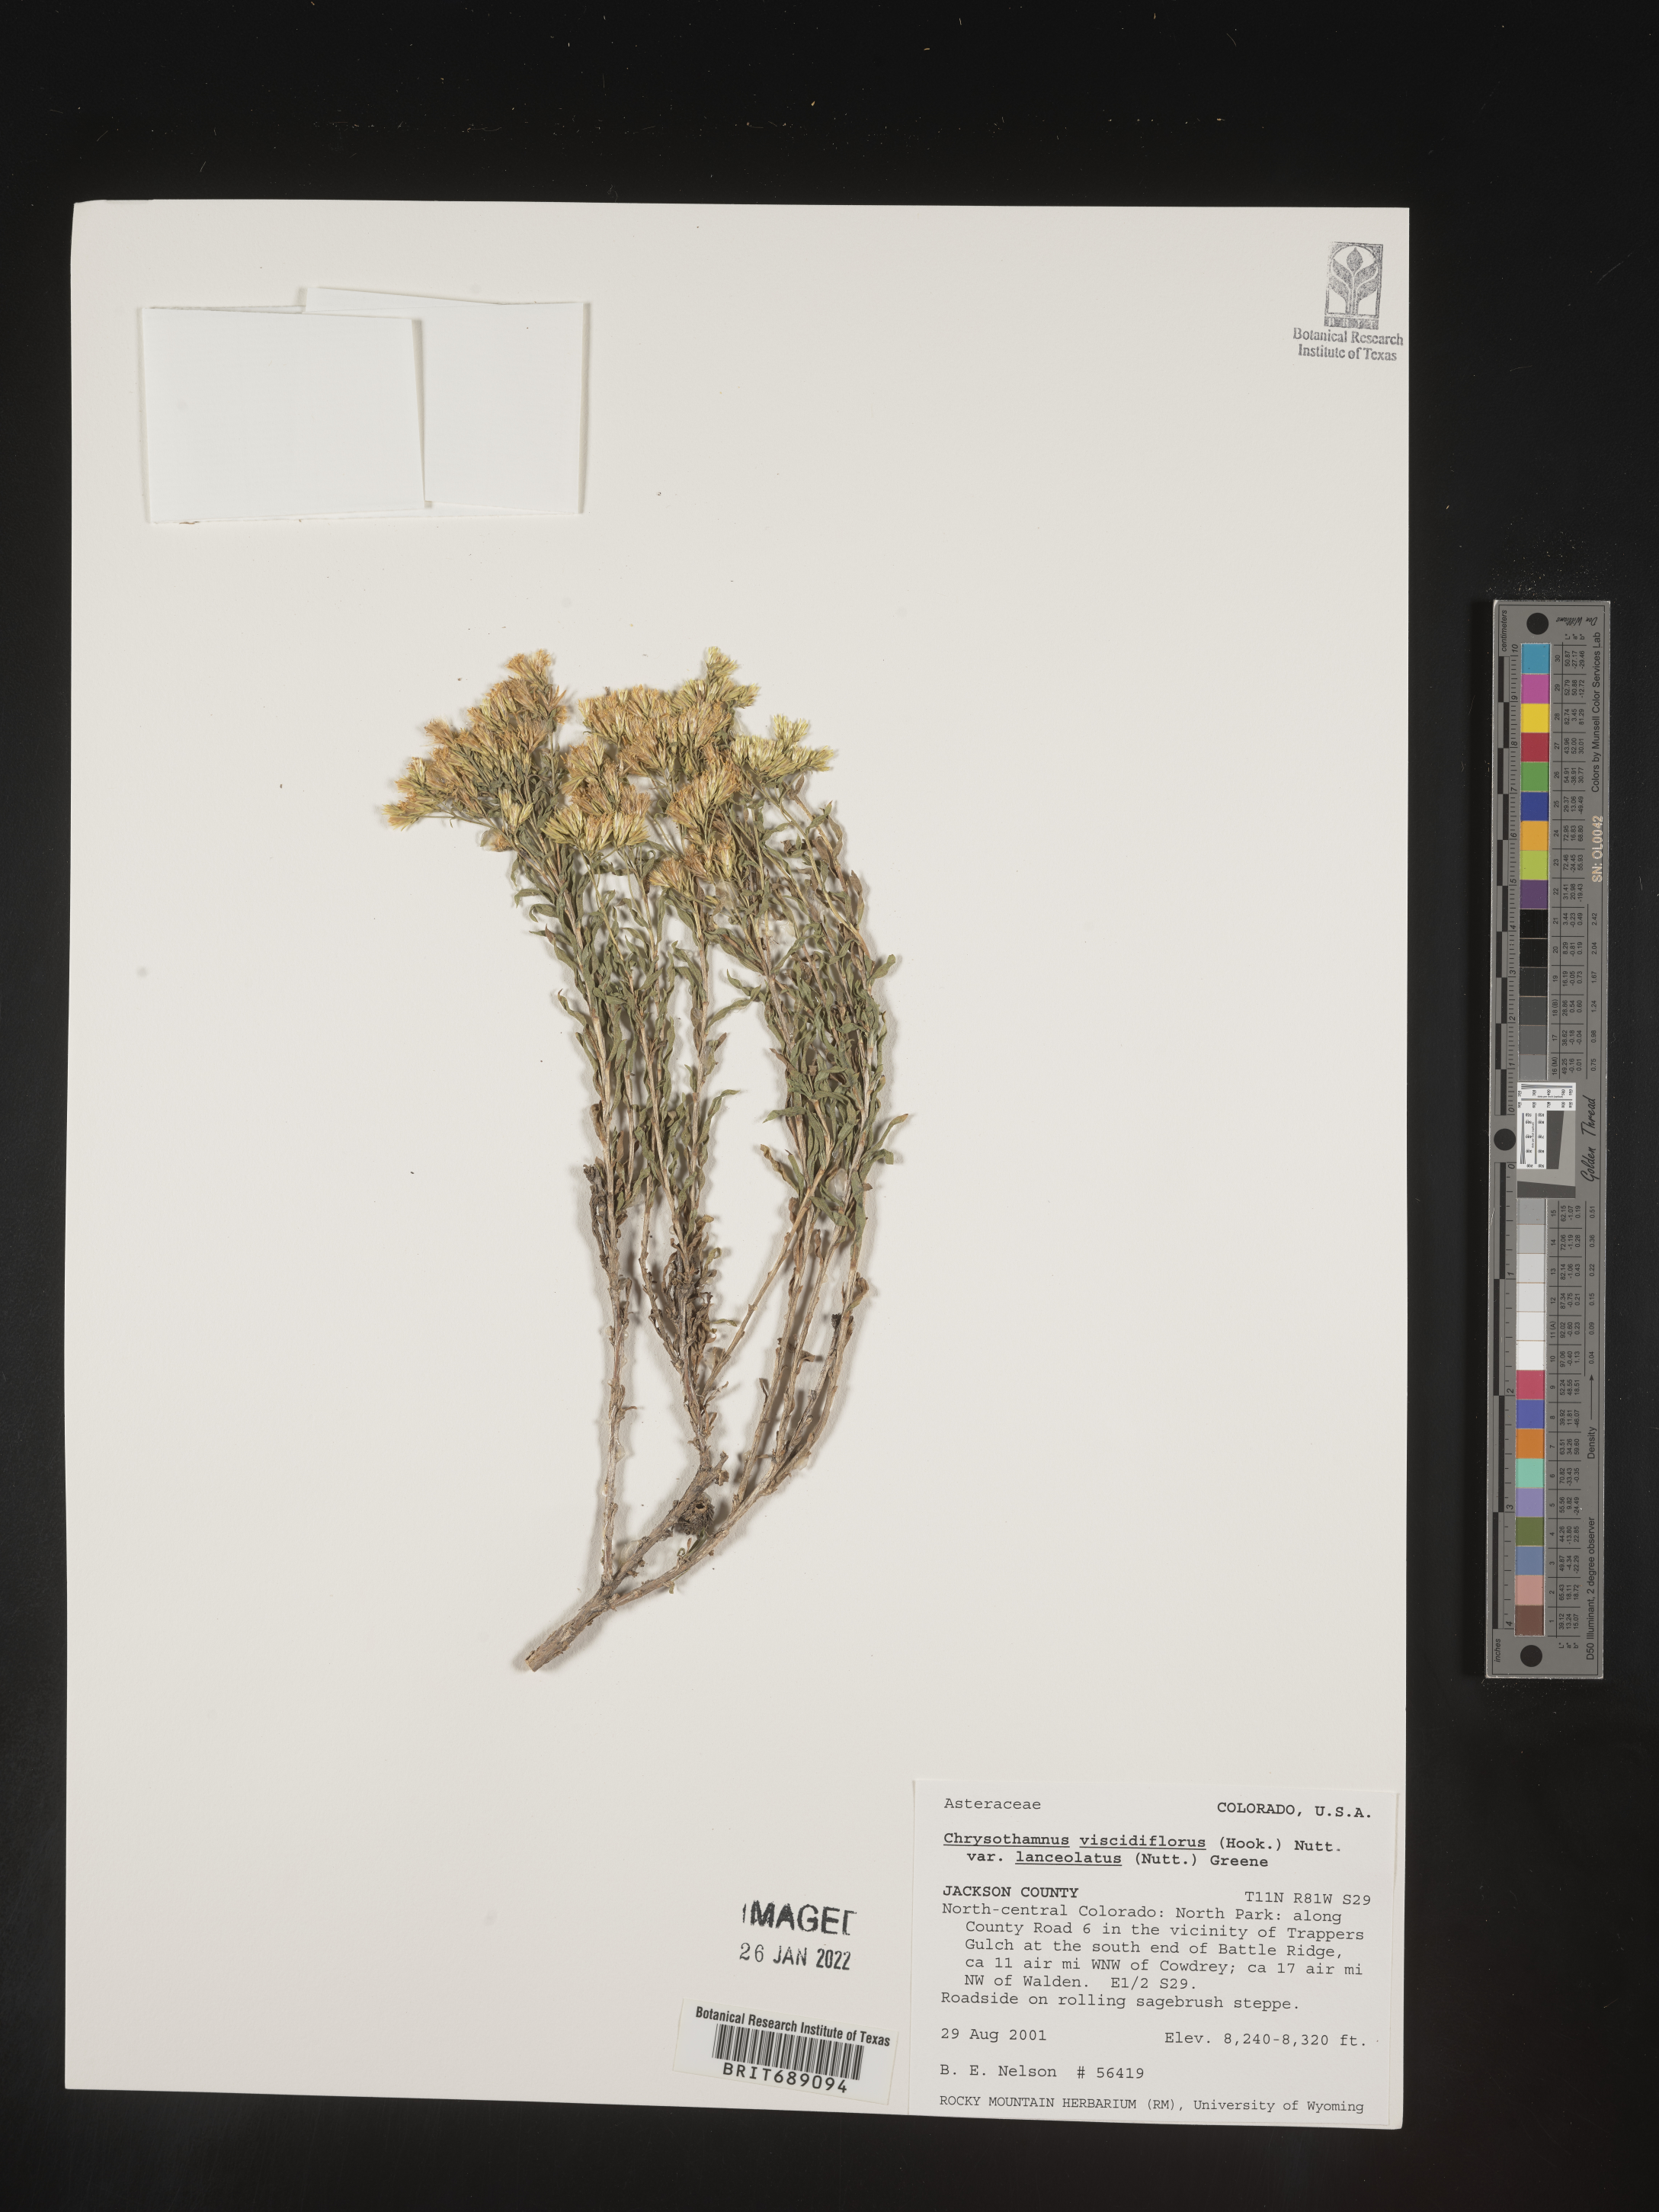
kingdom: Plantae
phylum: Tracheophyta
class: Magnoliopsida
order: Asterales
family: Asteraceae
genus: Chrysothamnus
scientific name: Chrysothamnus viscidiflorus
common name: Yellow rabbitbrush
